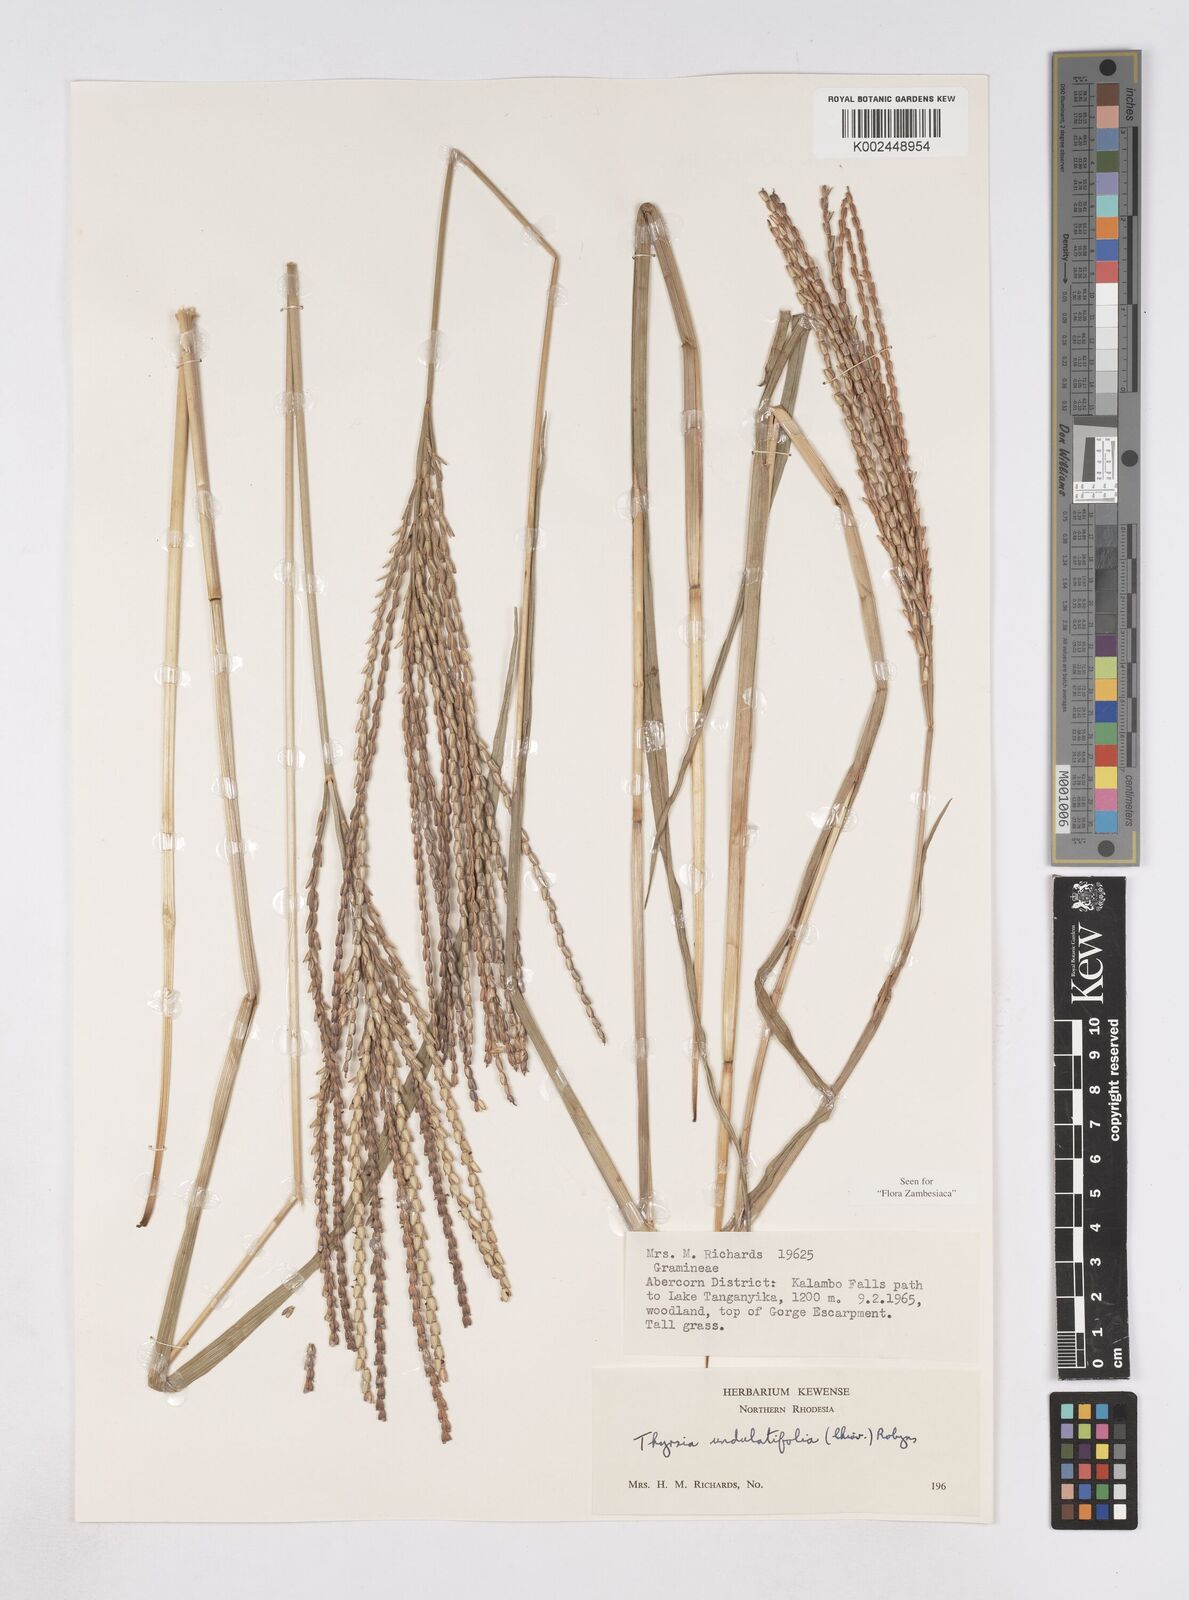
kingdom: Plantae
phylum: Tracheophyta
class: Liliopsida
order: Poales
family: Poaceae
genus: Thyrsia
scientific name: Thyrsia huillensis
